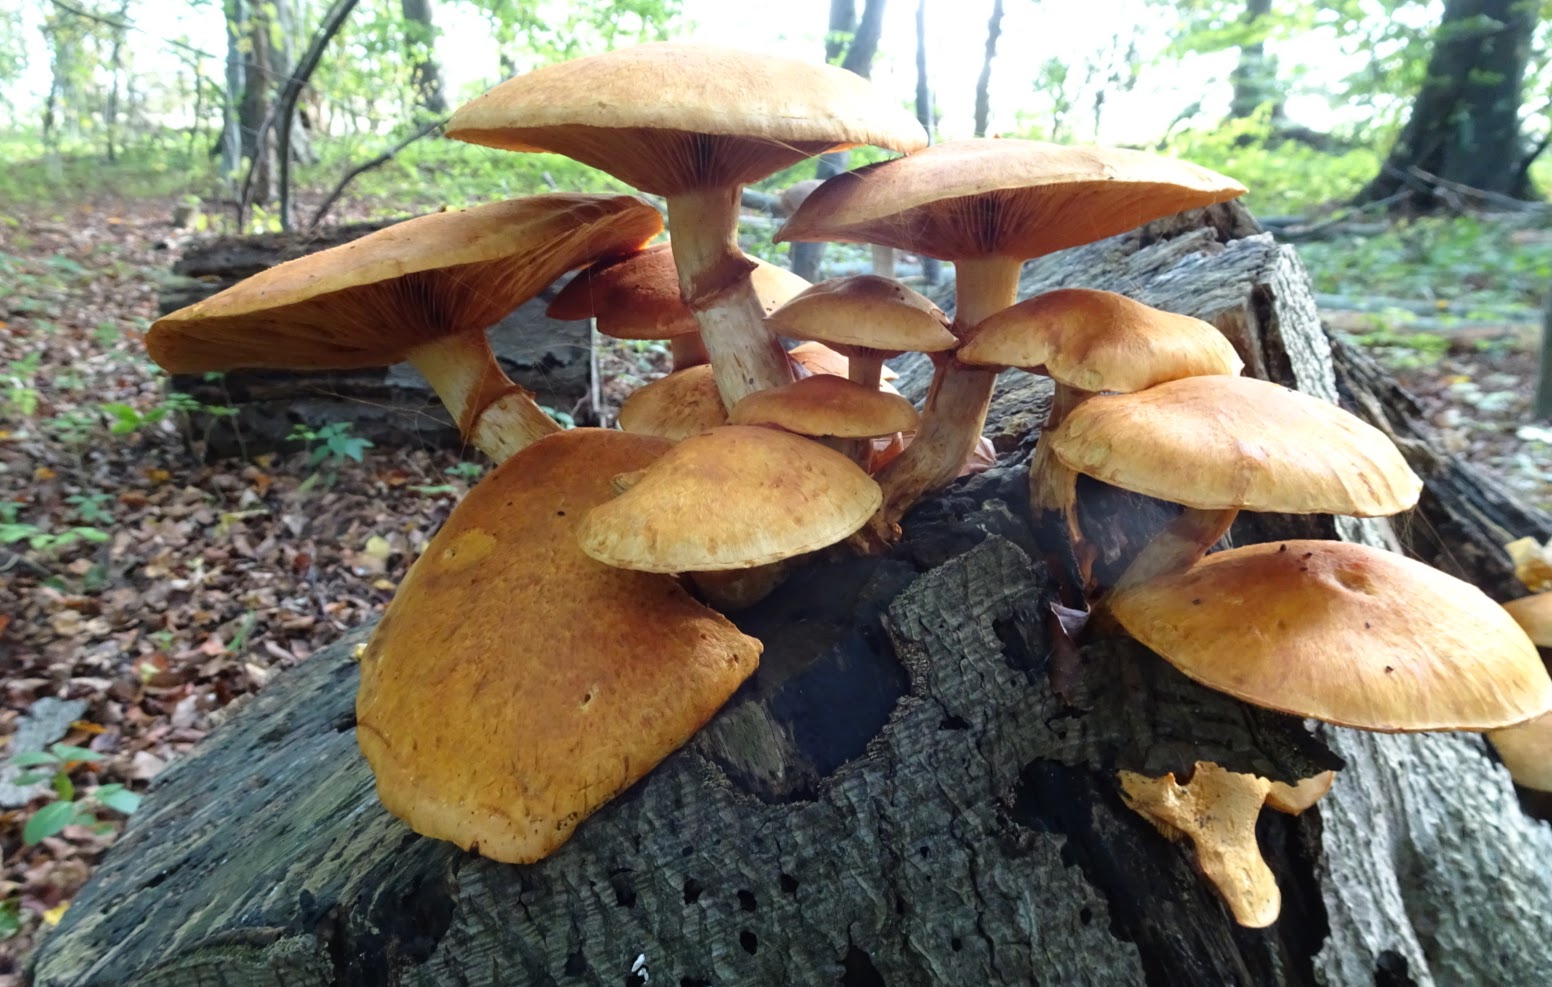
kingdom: Fungi
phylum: Basidiomycota
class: Agaricomycetes
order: Agaricales
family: Hymenogastraceae
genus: Gymnopilus
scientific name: Gymnopilus spectabilis
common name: fibret flammehat
